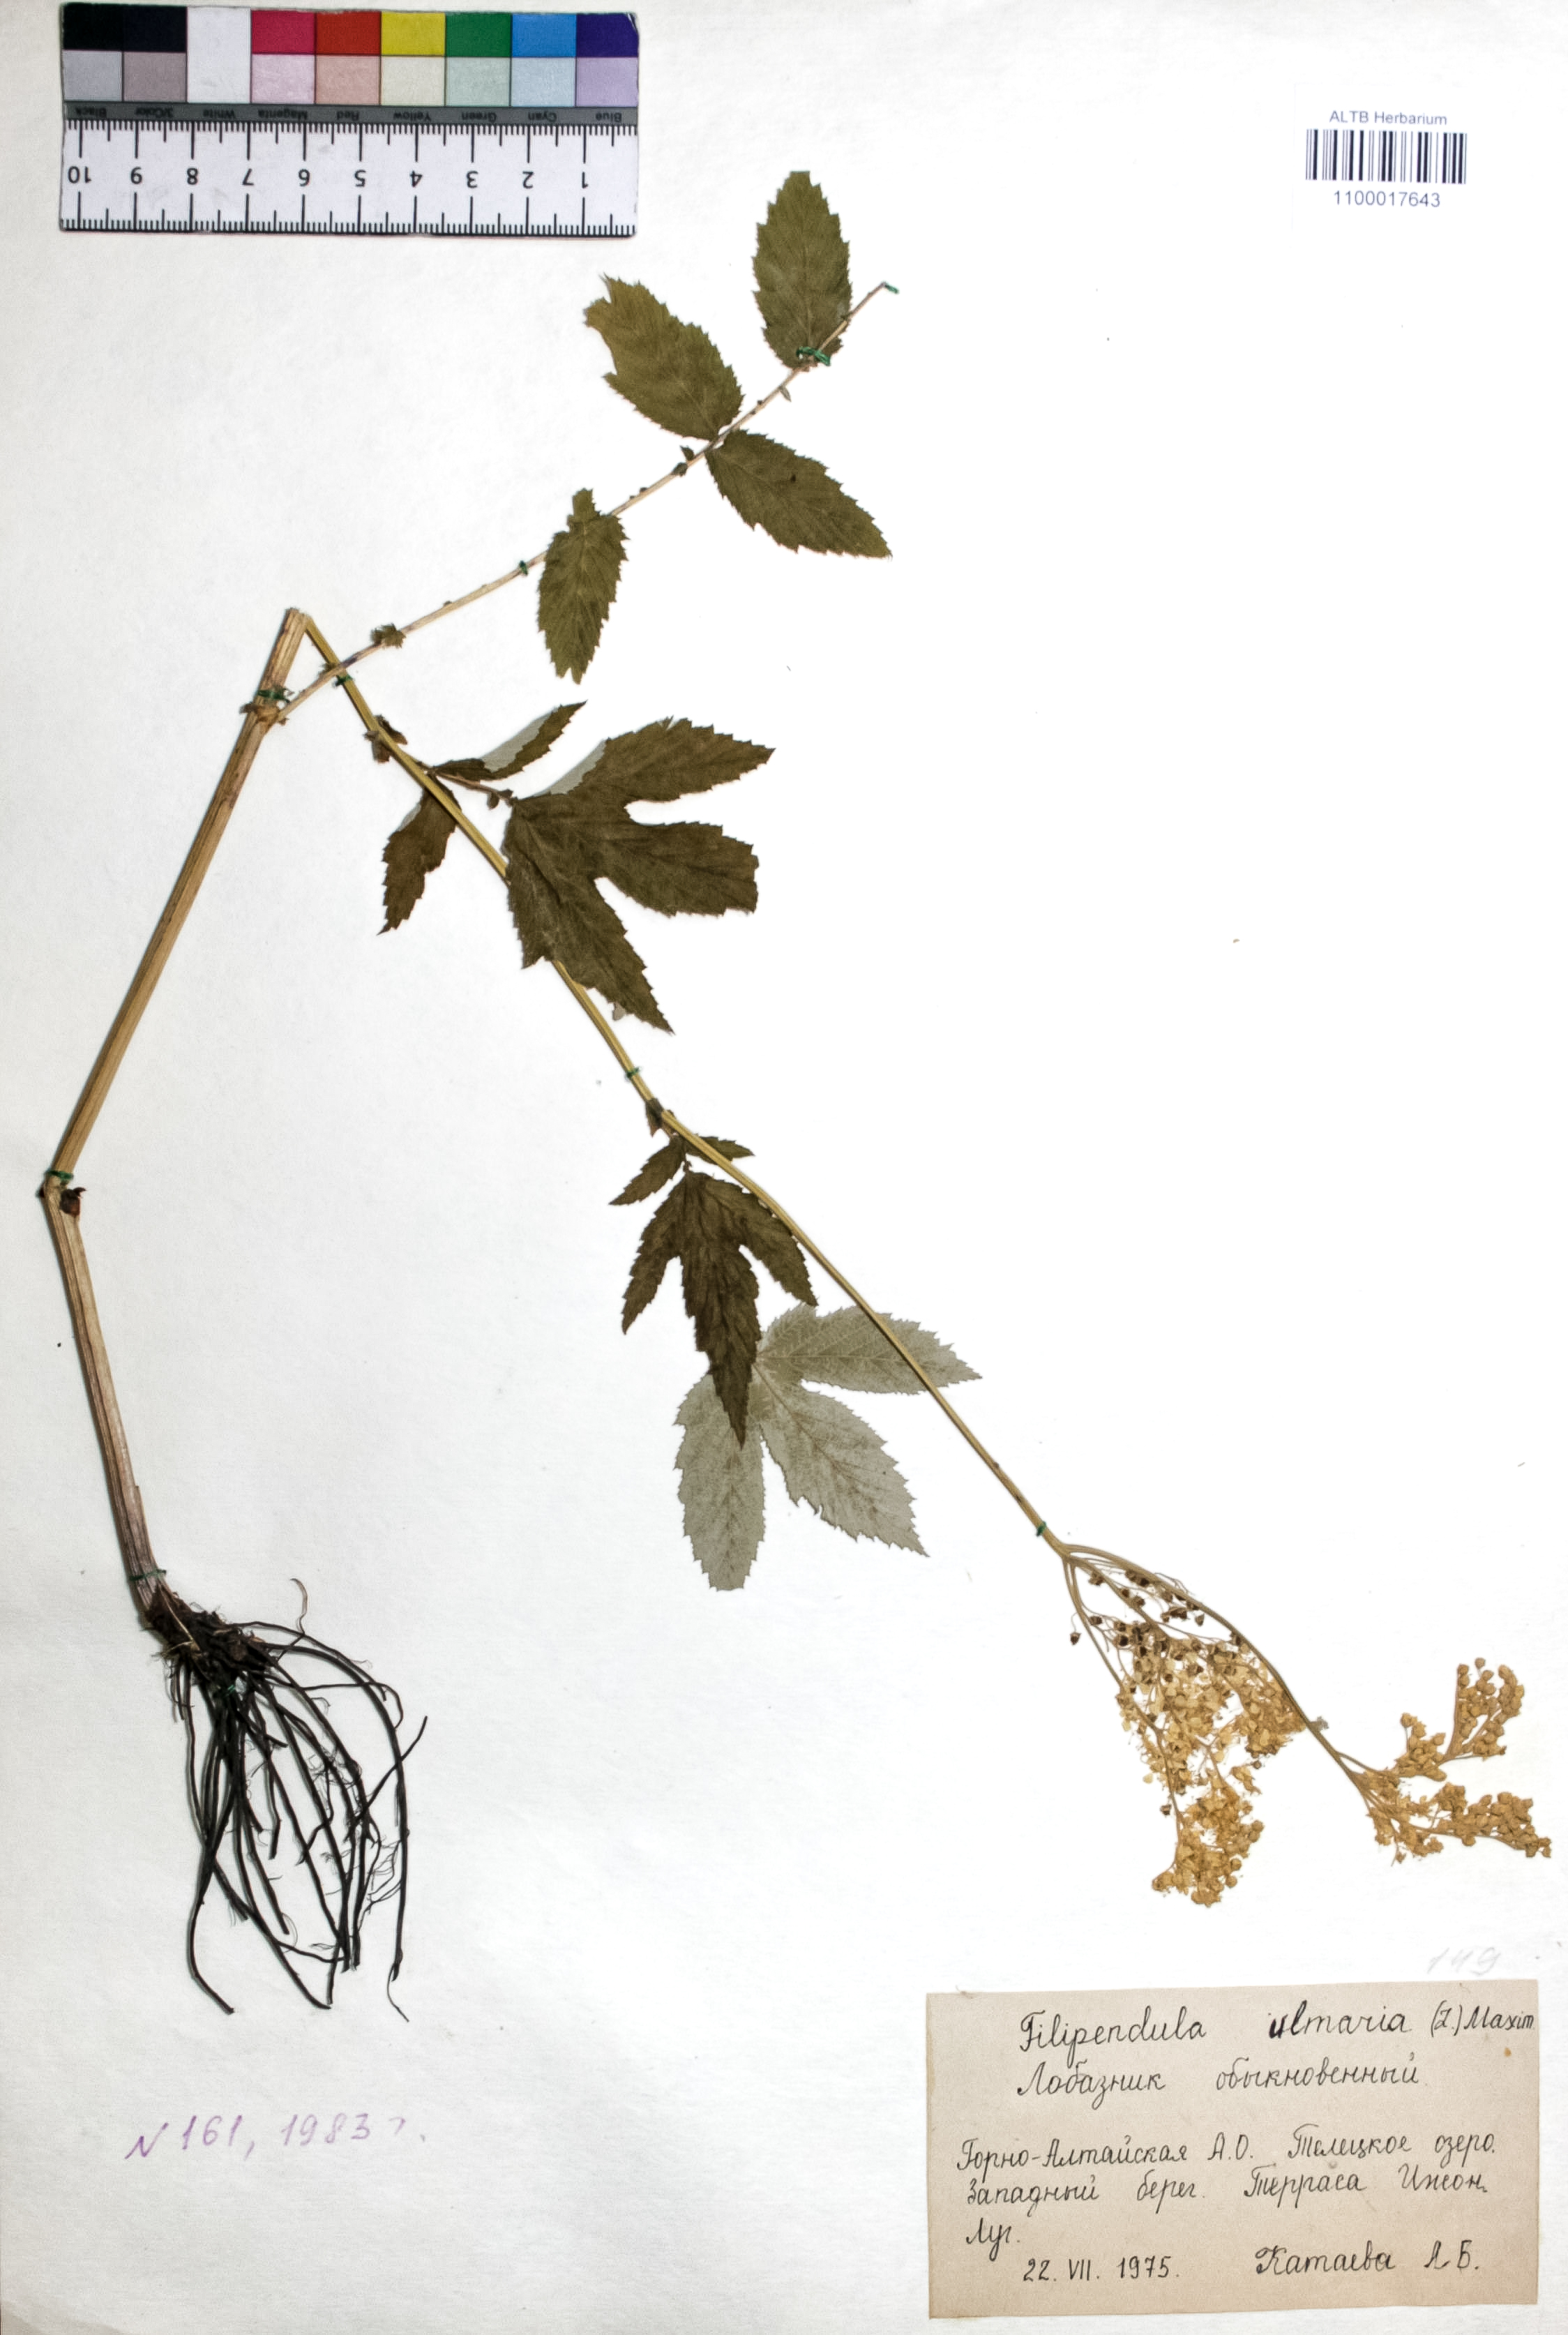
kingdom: Plantae
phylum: Tracheophyta
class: Magnoliopsida
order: Rosales
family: Rosaceae
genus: Filipendula
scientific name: Filipendula ulmaria
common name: Meadowsweet
